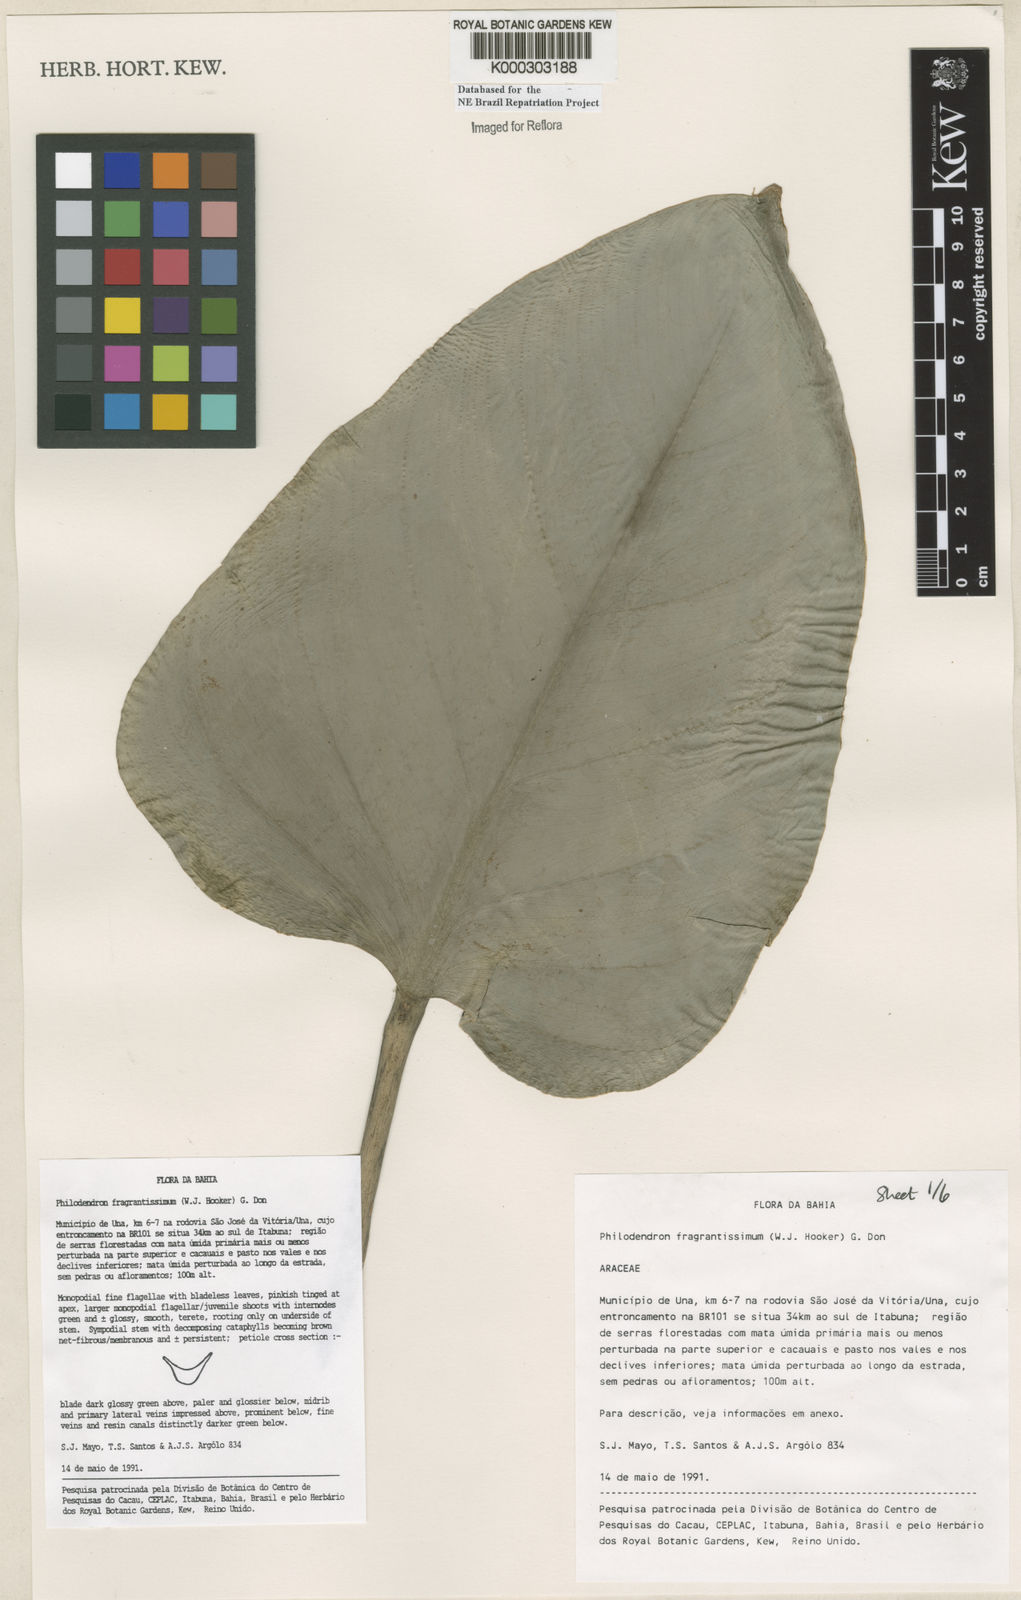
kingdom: Plantae
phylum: Tracheophyta
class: Liliopsida
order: Alismatales
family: Araceae
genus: Philodendron
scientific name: Philodendron fragrantissimum
